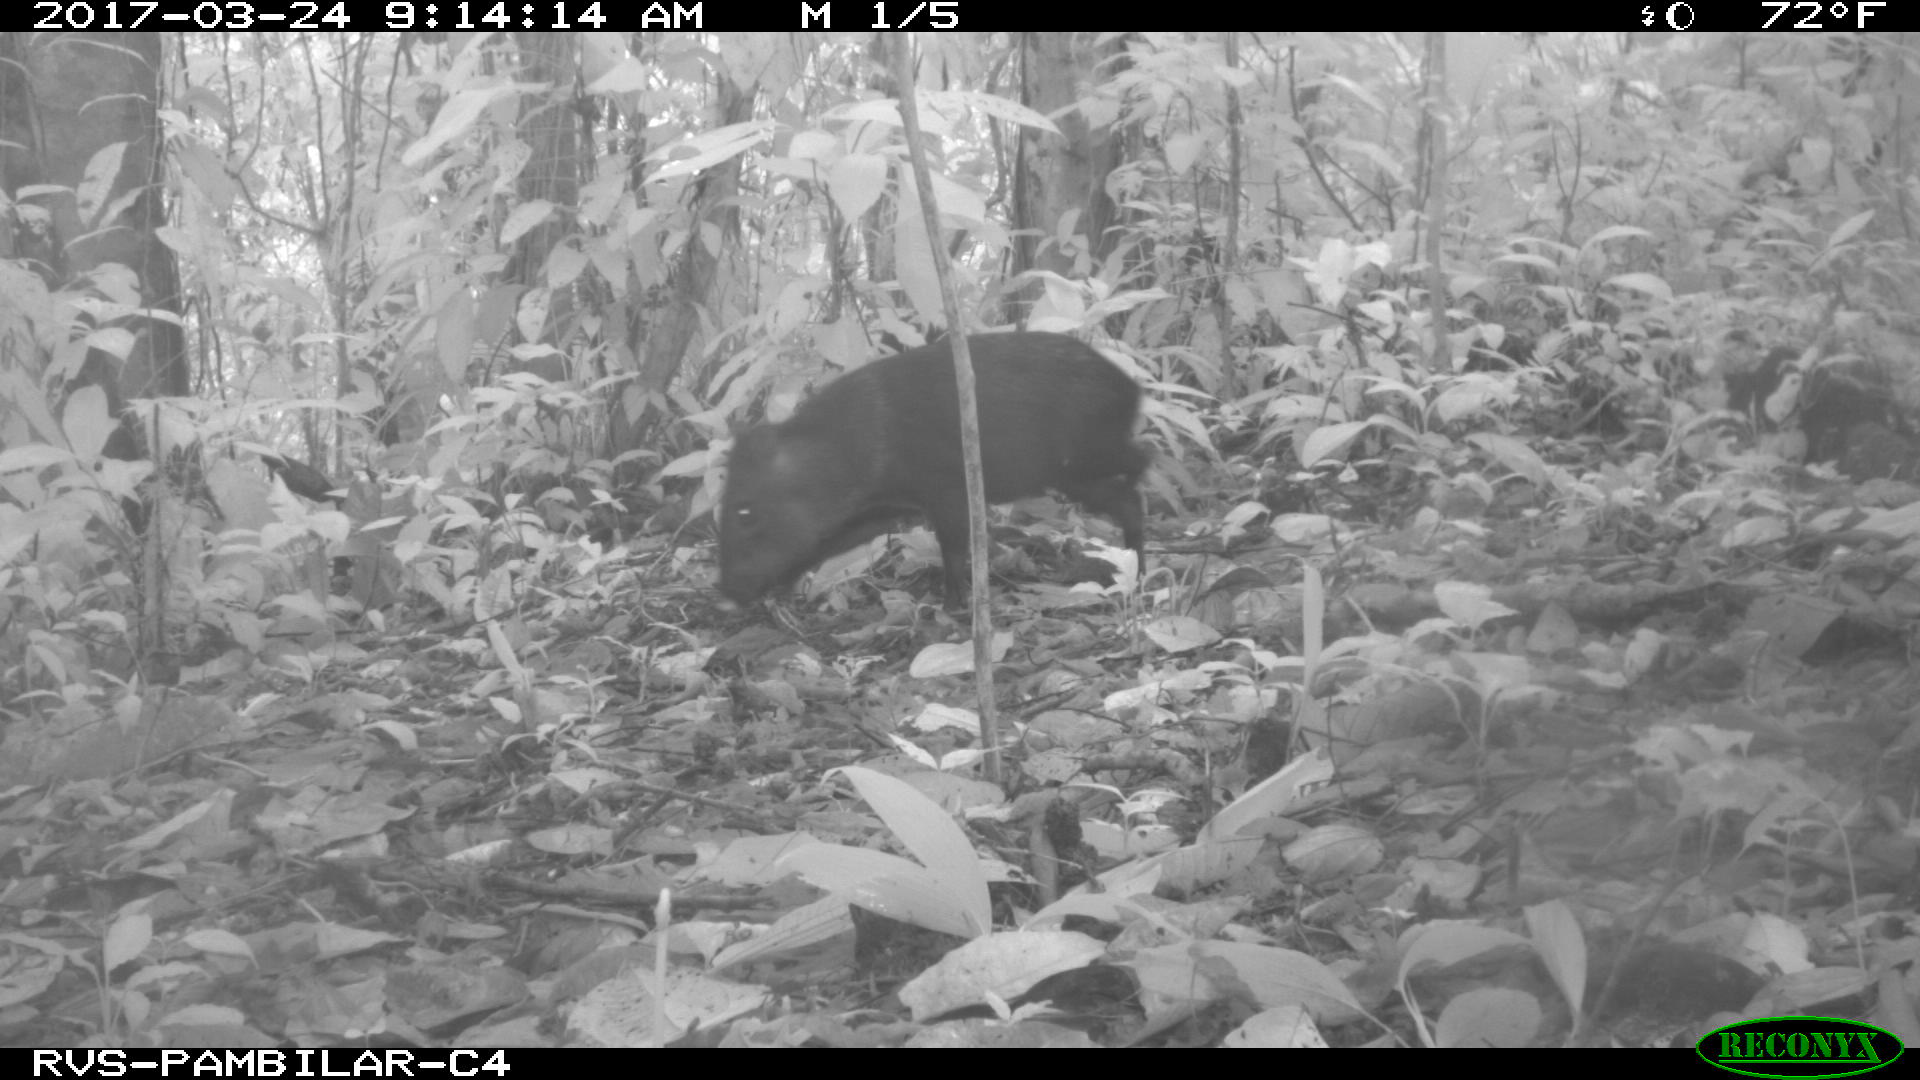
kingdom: Animalia
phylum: Chordata
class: Mammalia
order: Artiodactyla
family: Tayassuidae
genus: Tayassu
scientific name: Tayassu pecari
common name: White-lipped peccary
